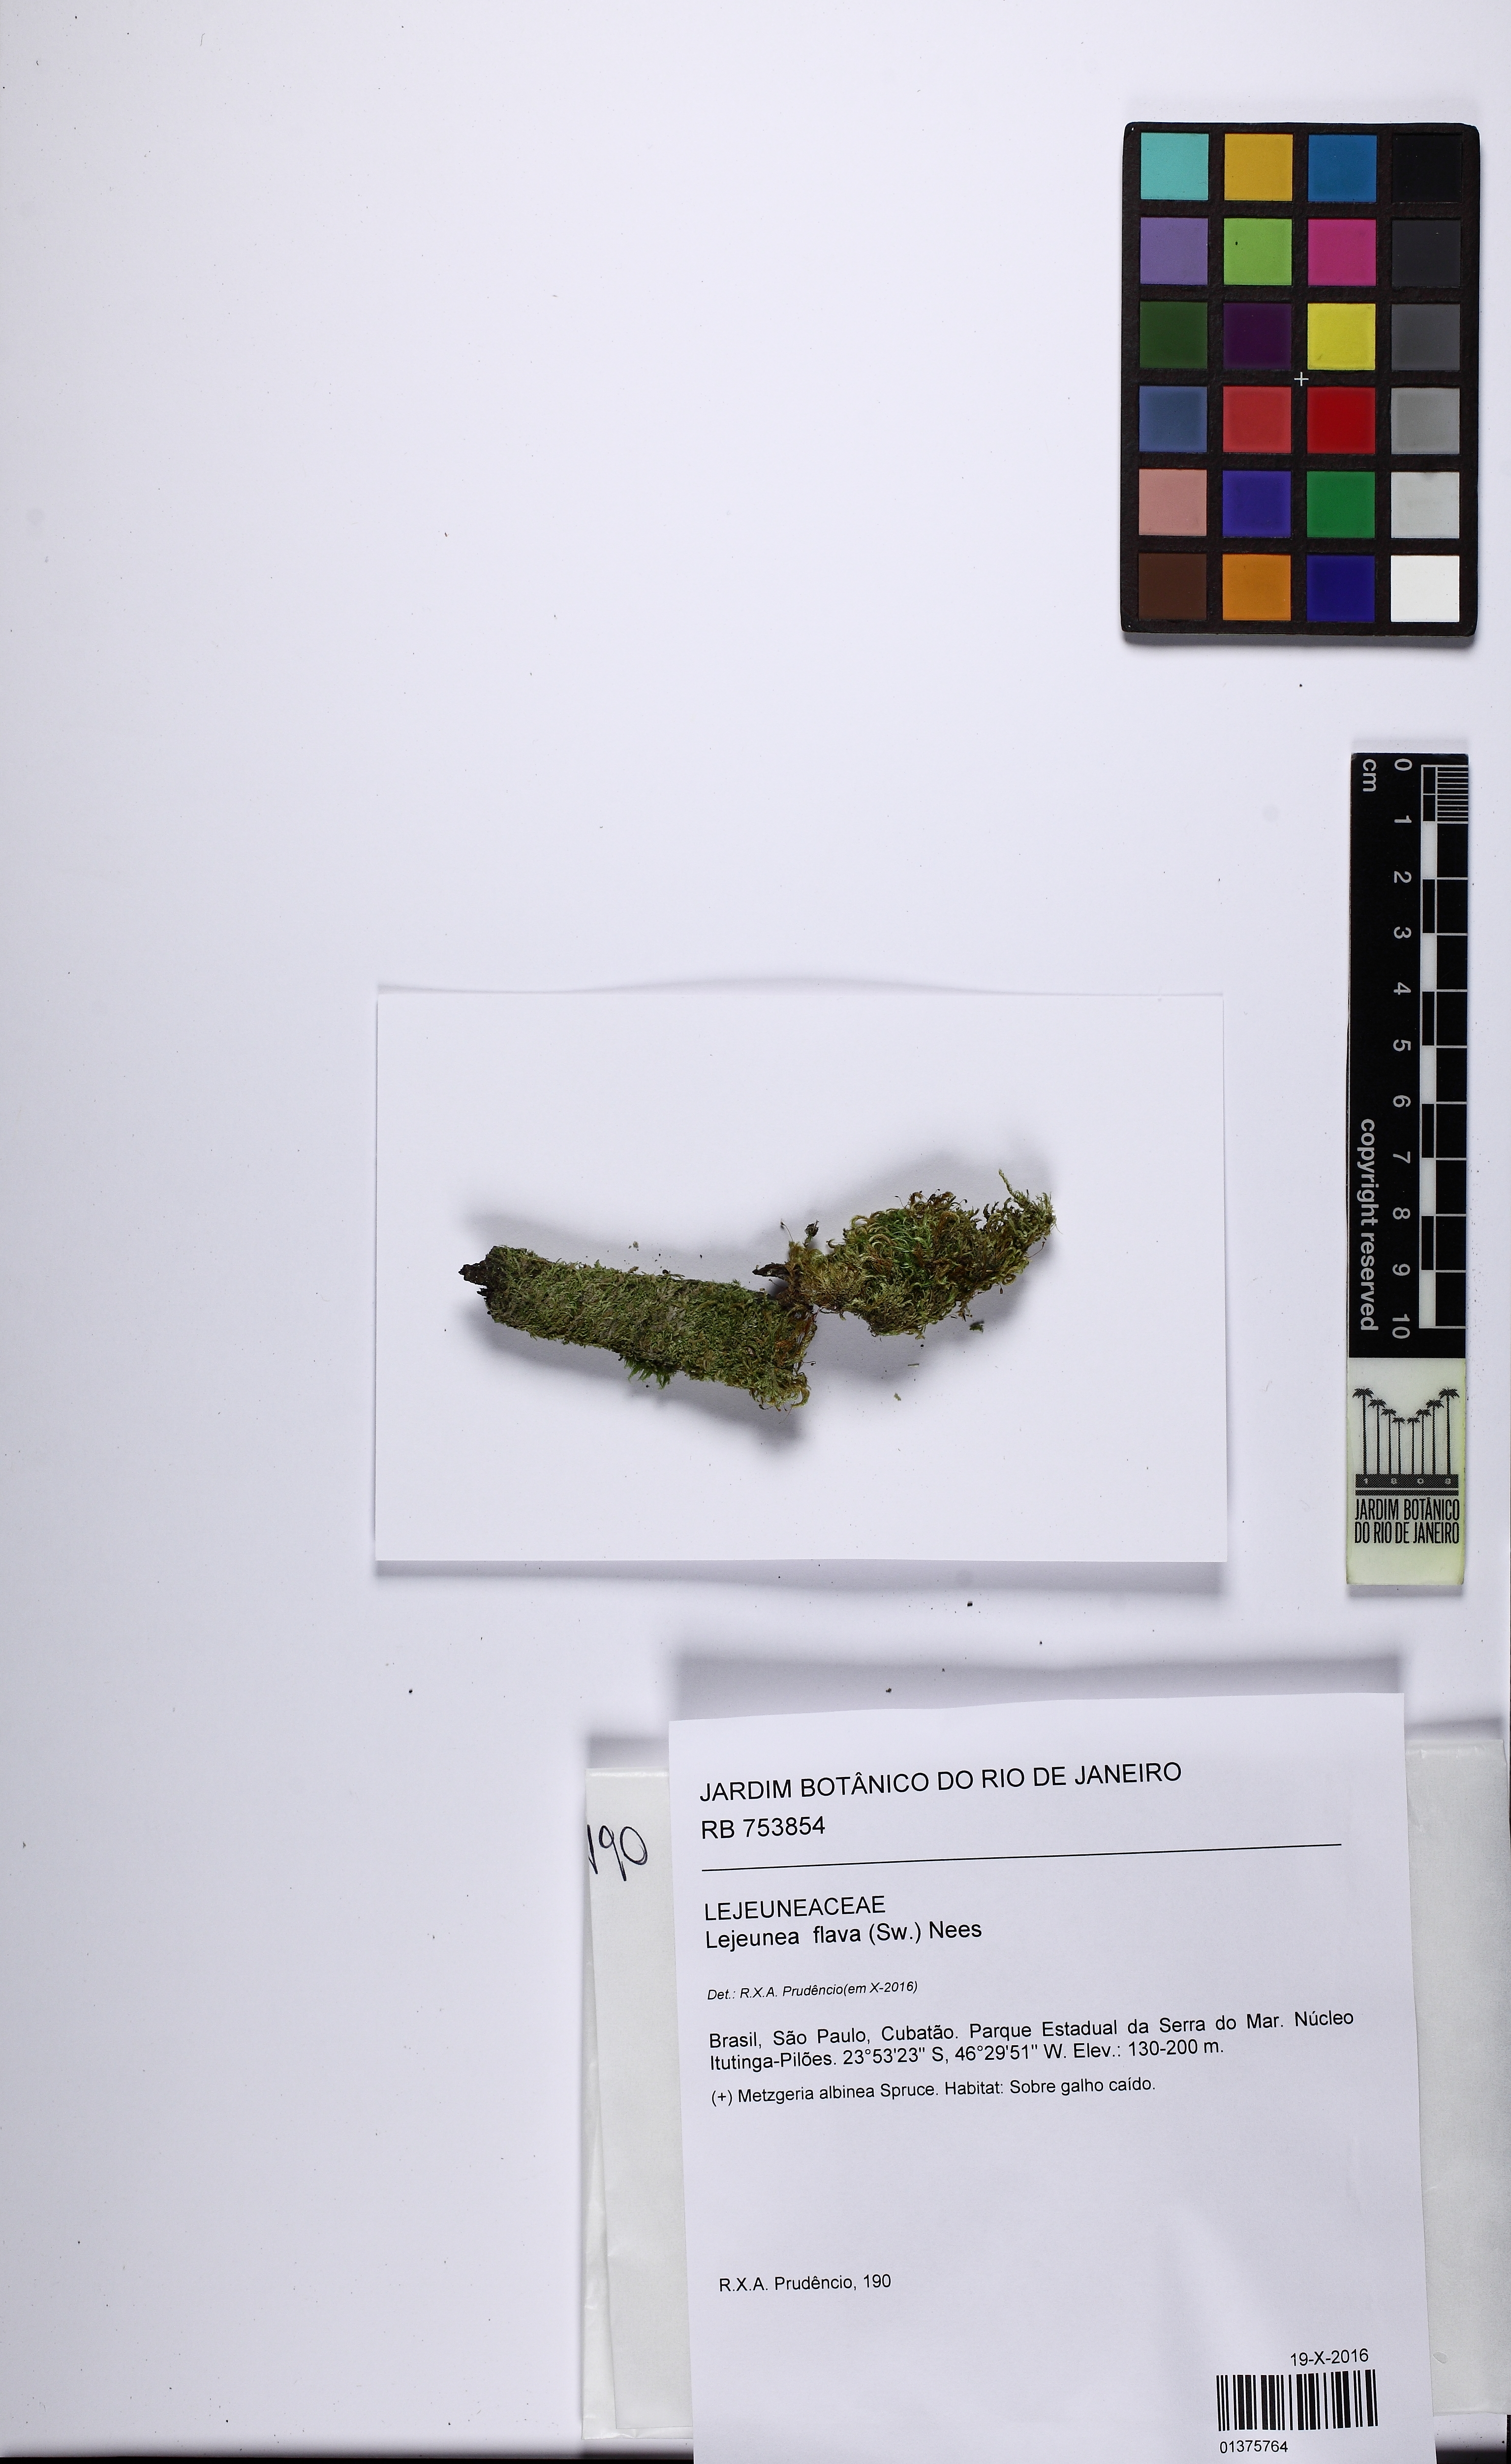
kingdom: Plantae
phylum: Marchantiophyta
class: Jungermanniopsida
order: Porellales
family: Lejeuneaceae
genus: Lejeunea
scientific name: Lejeunea flava
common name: Yellow pouncewort
